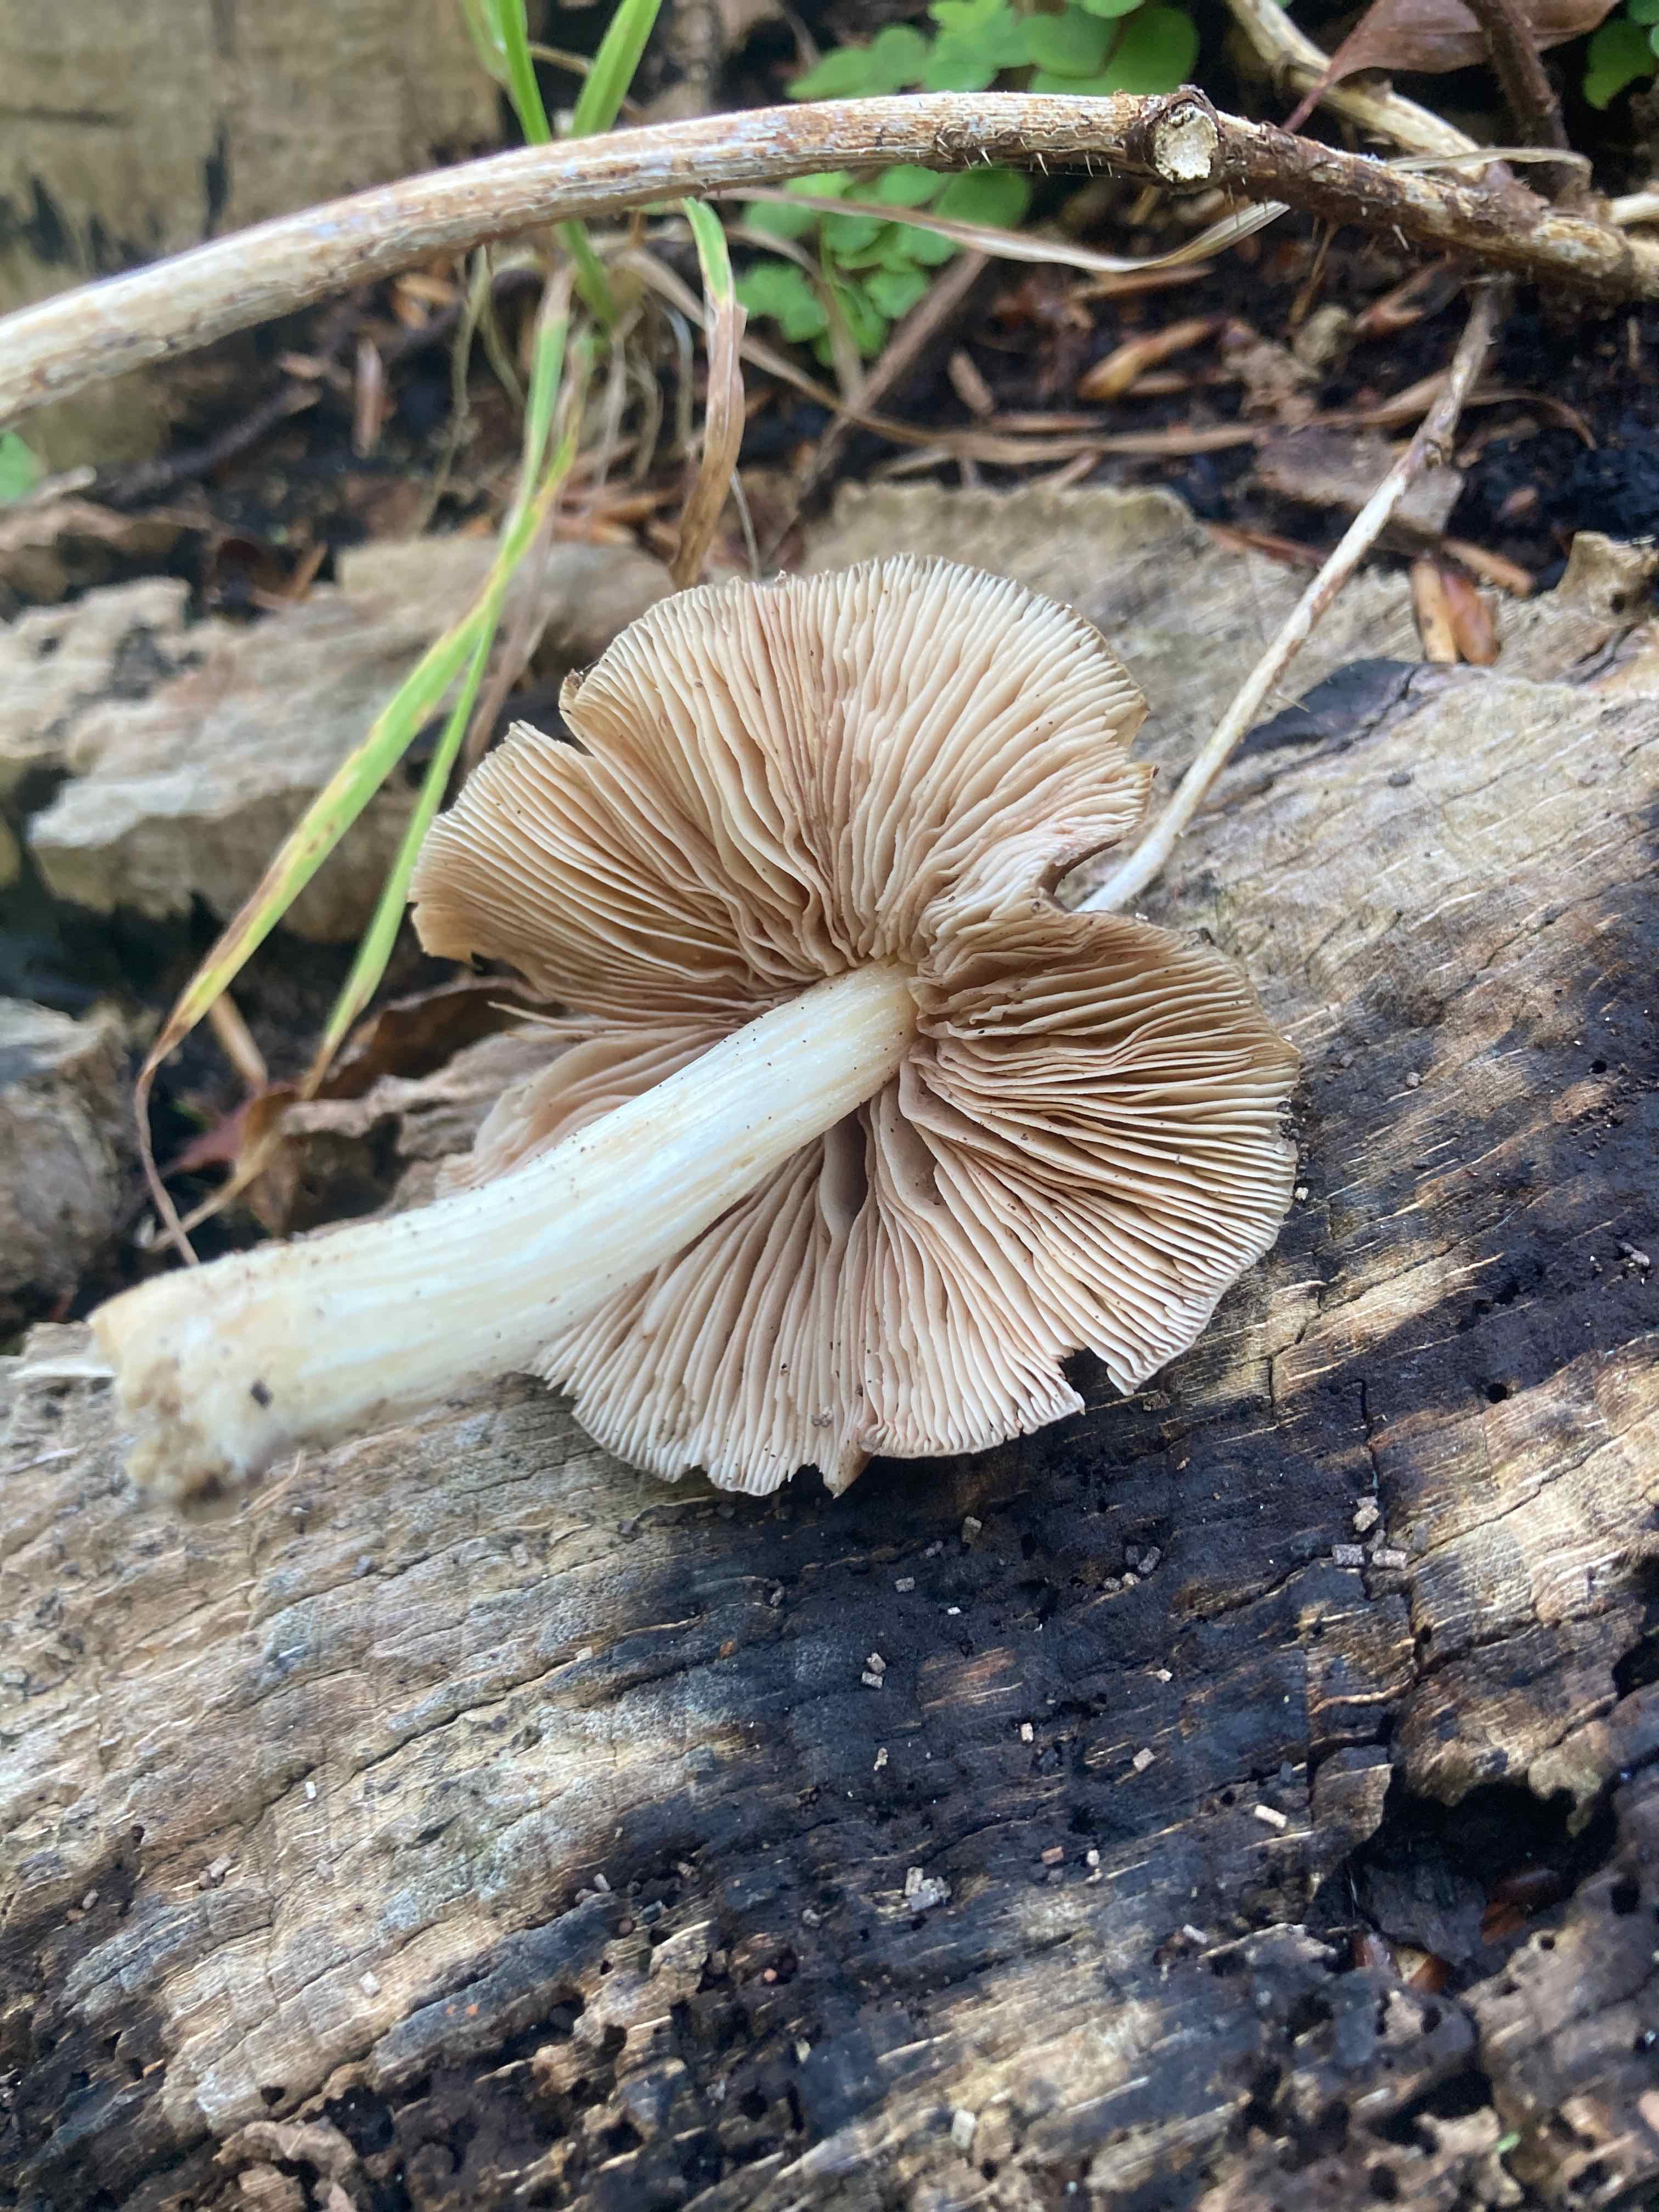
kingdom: Fungi
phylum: Basidiomycota
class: Agaricomycetes
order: Agaricales
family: Pluteaceae
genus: Pluteus
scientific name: Pluteus phlebophorus
